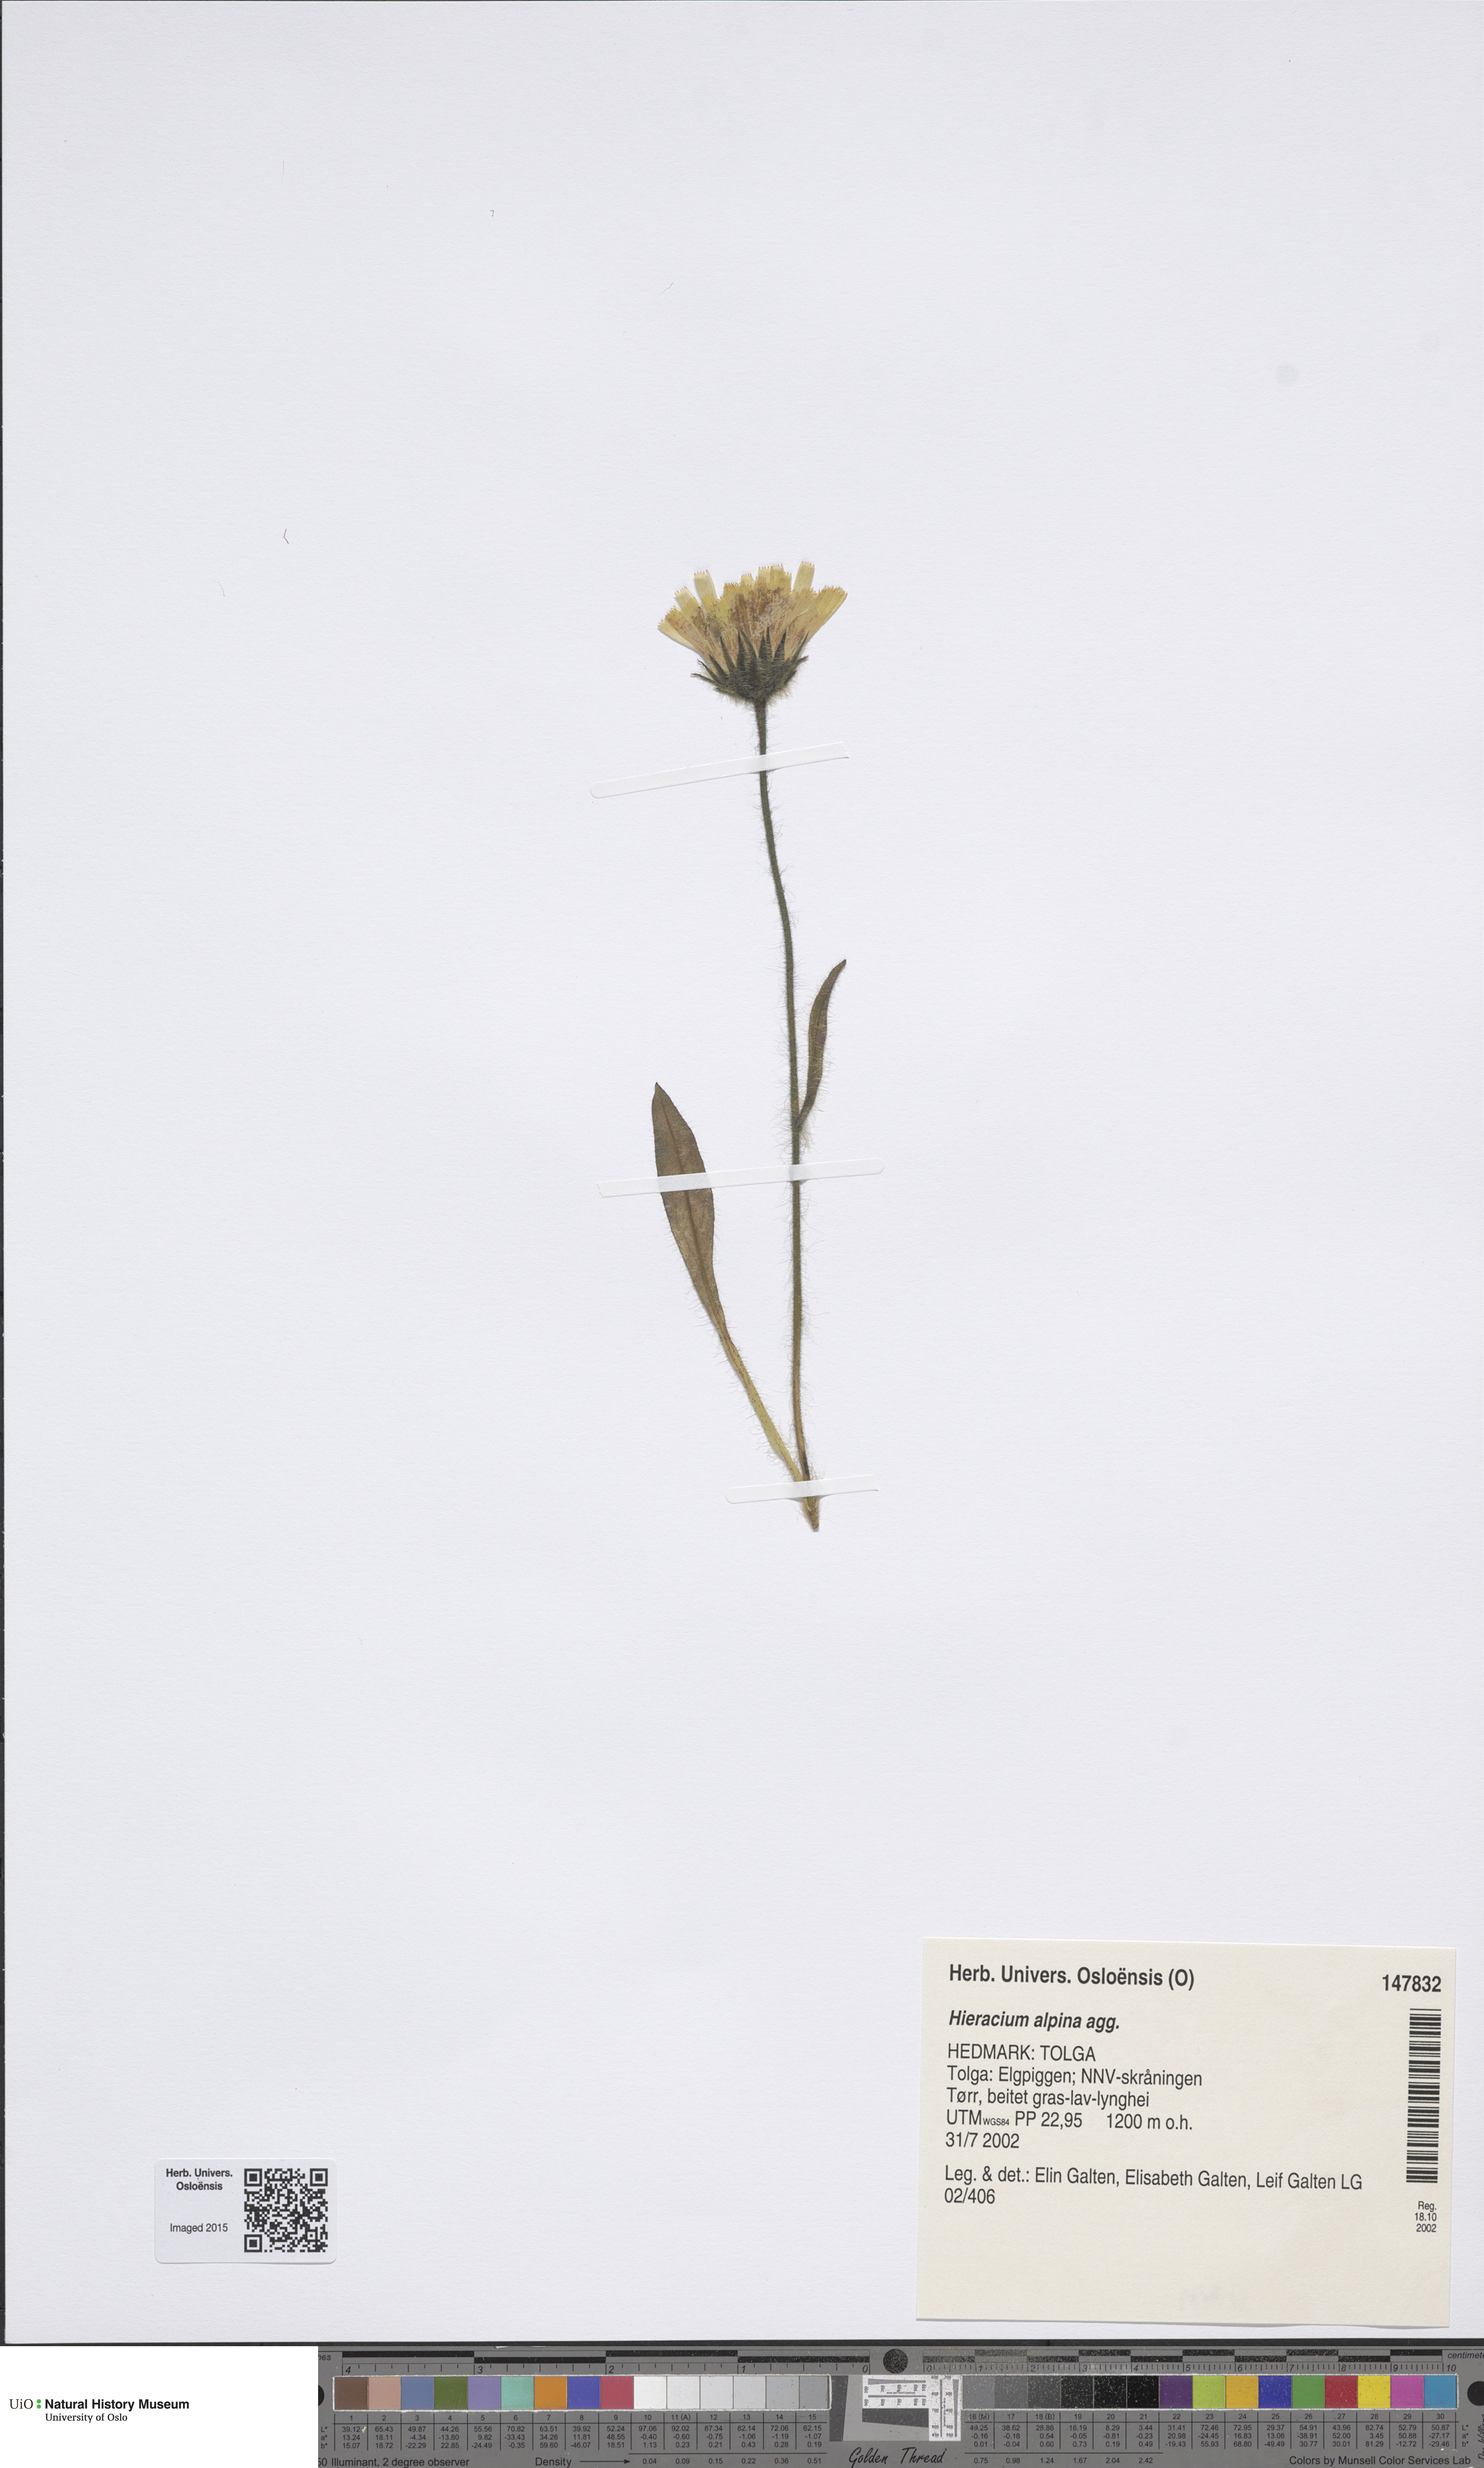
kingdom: Plantae
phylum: Tracheophyta
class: Magnoliopsida
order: Asterales
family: Asteraceae
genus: Hieracium
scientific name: Hieracium alpinum
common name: Alpine hawkweed
